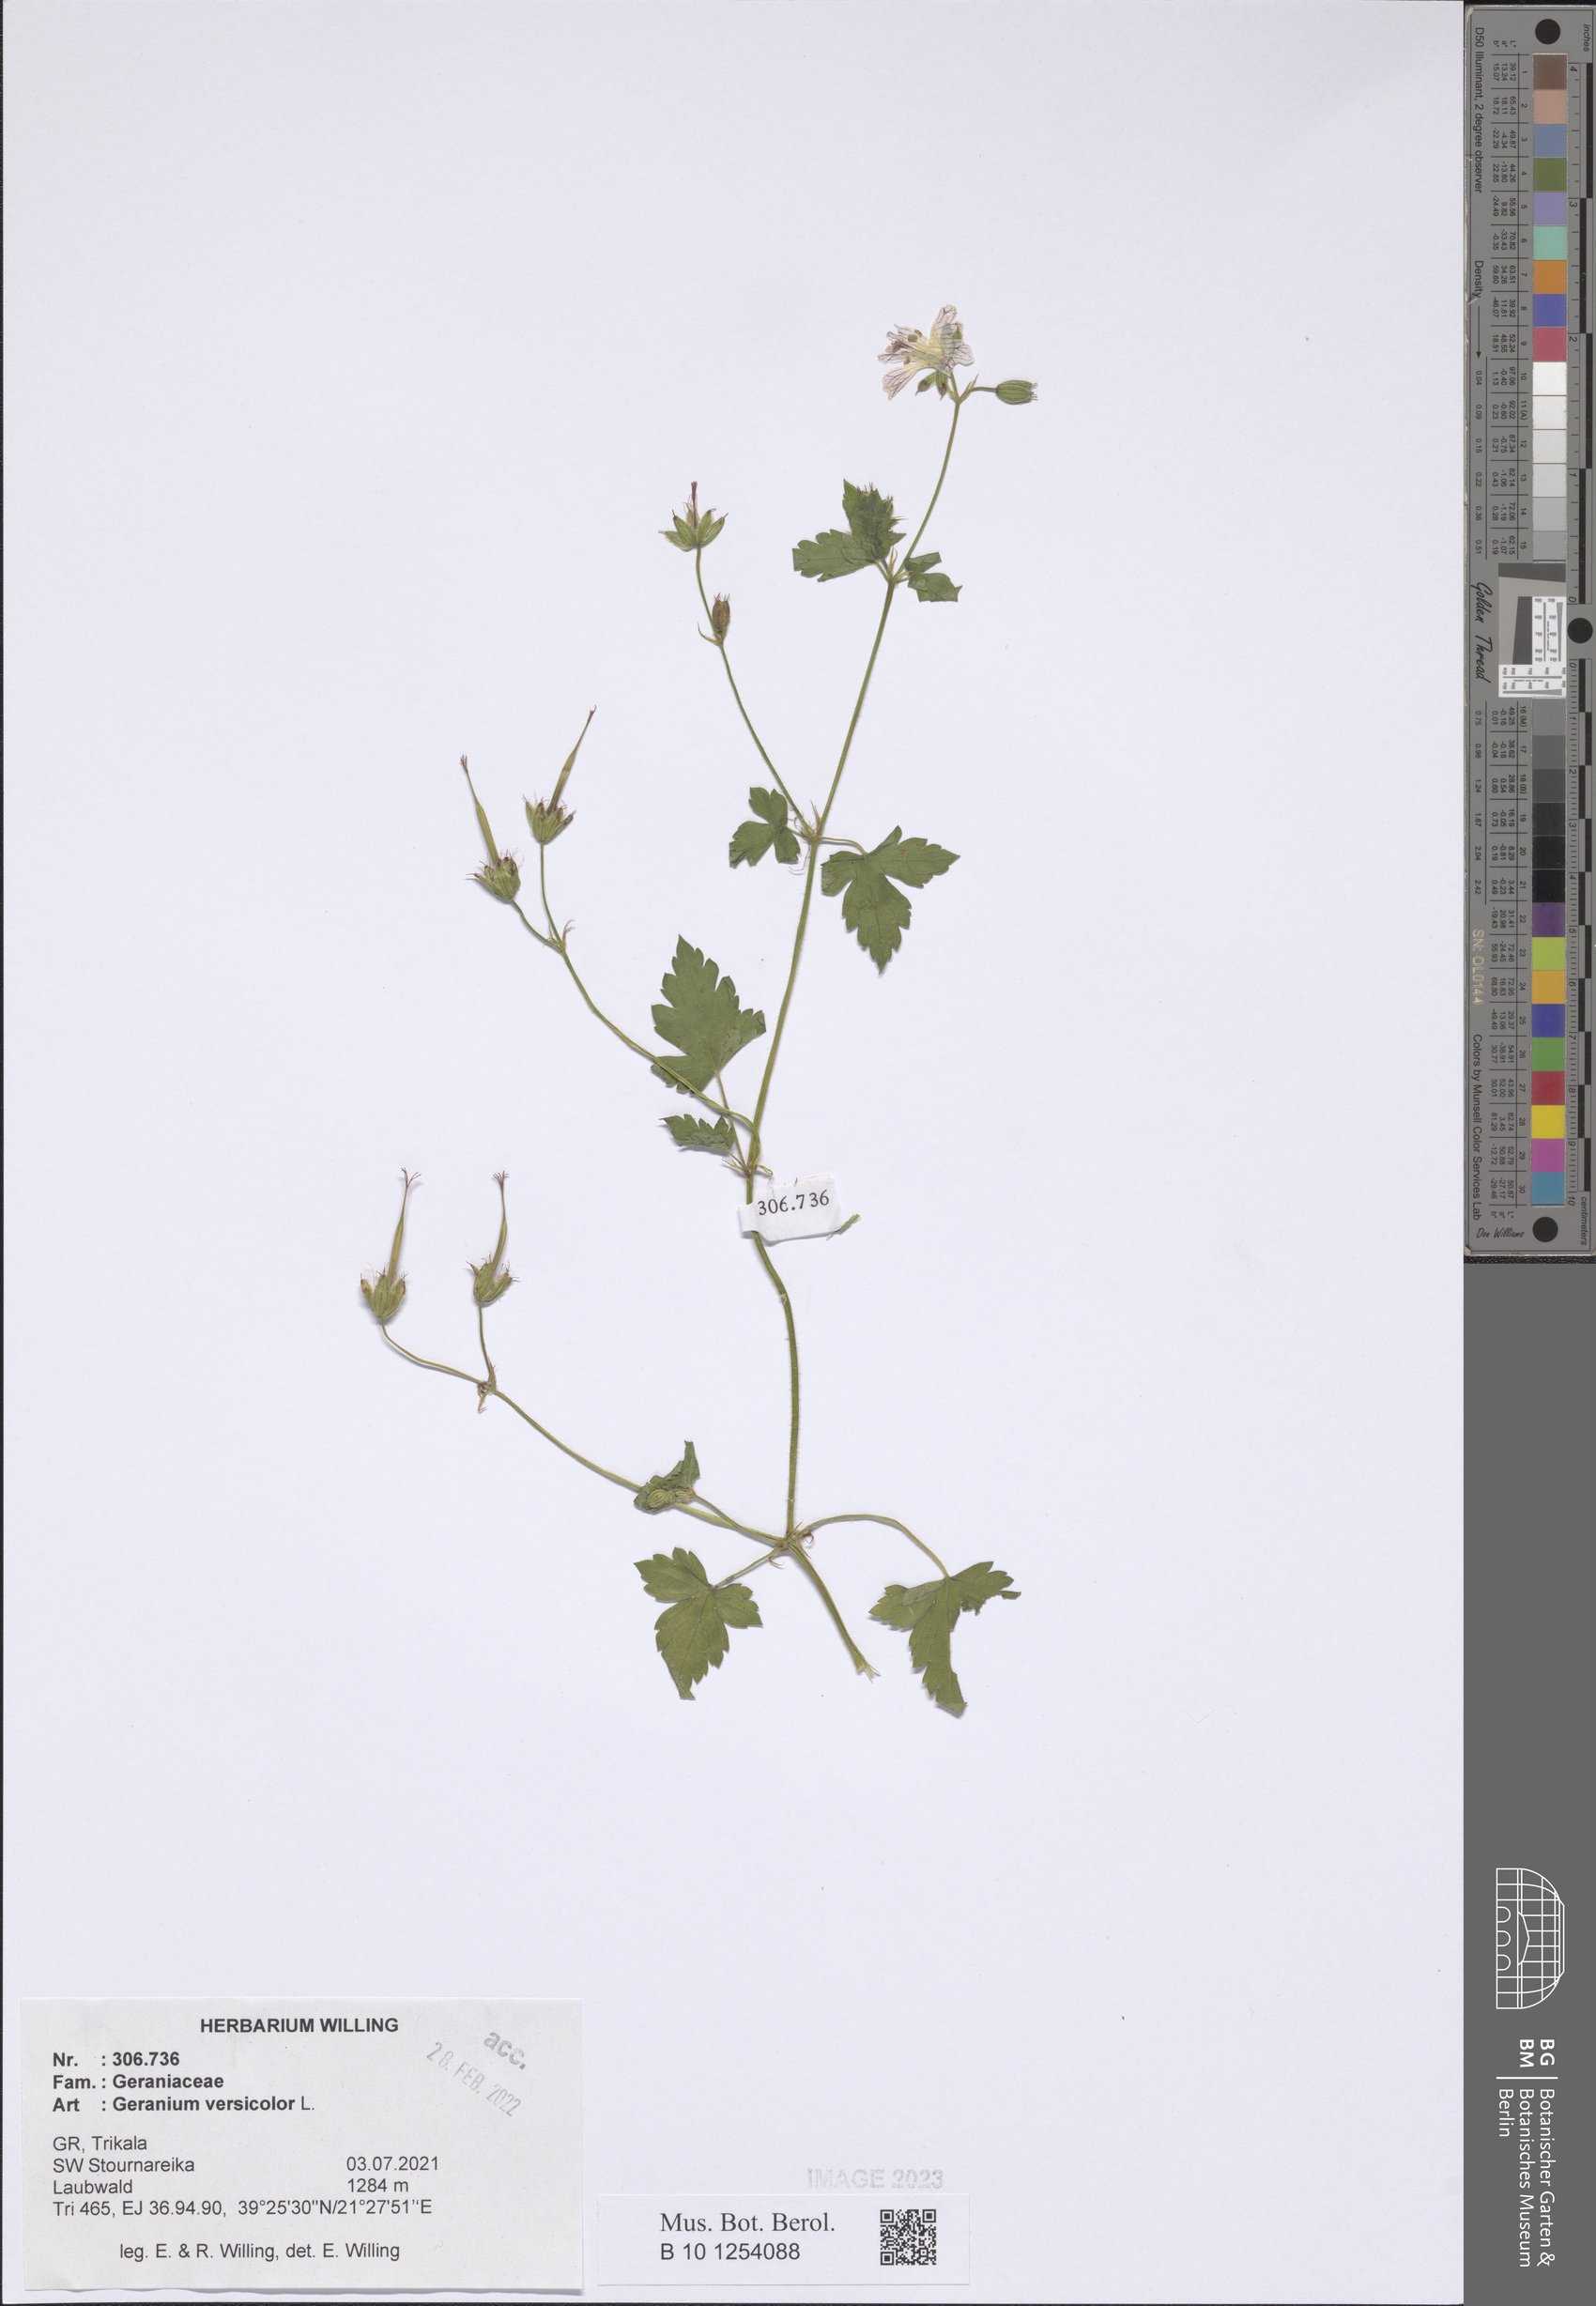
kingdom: Plantae
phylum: Tracheophyta
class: Magnoliopsida
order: Geraniales
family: Geraniaceae
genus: Geranium
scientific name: Geranium versicolor
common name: Pencilled crane's-bill
